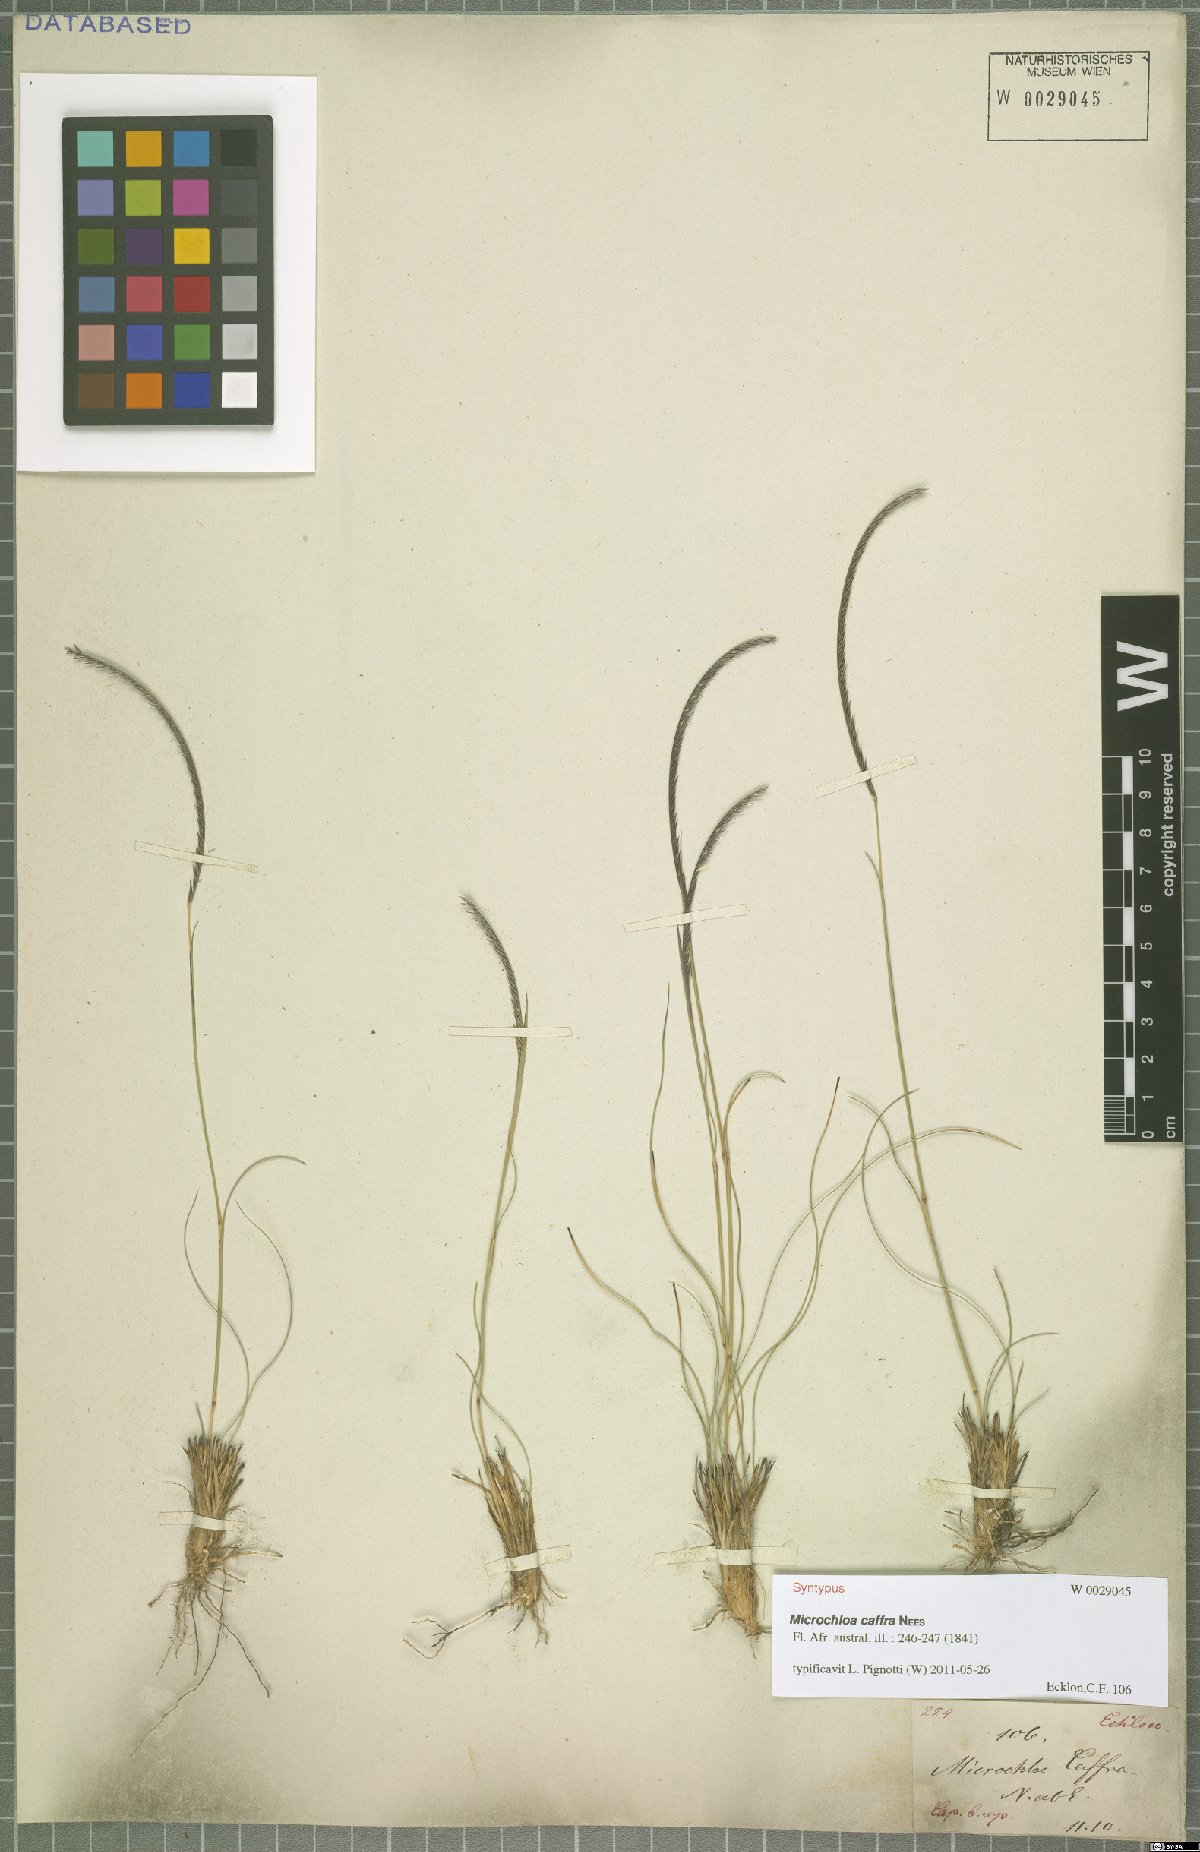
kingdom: Plantae
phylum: Tracheophyta
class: Liliopsida
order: Poales
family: Poaceae
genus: Microchloa
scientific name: Microchloa caffra
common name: Pincushion grass
